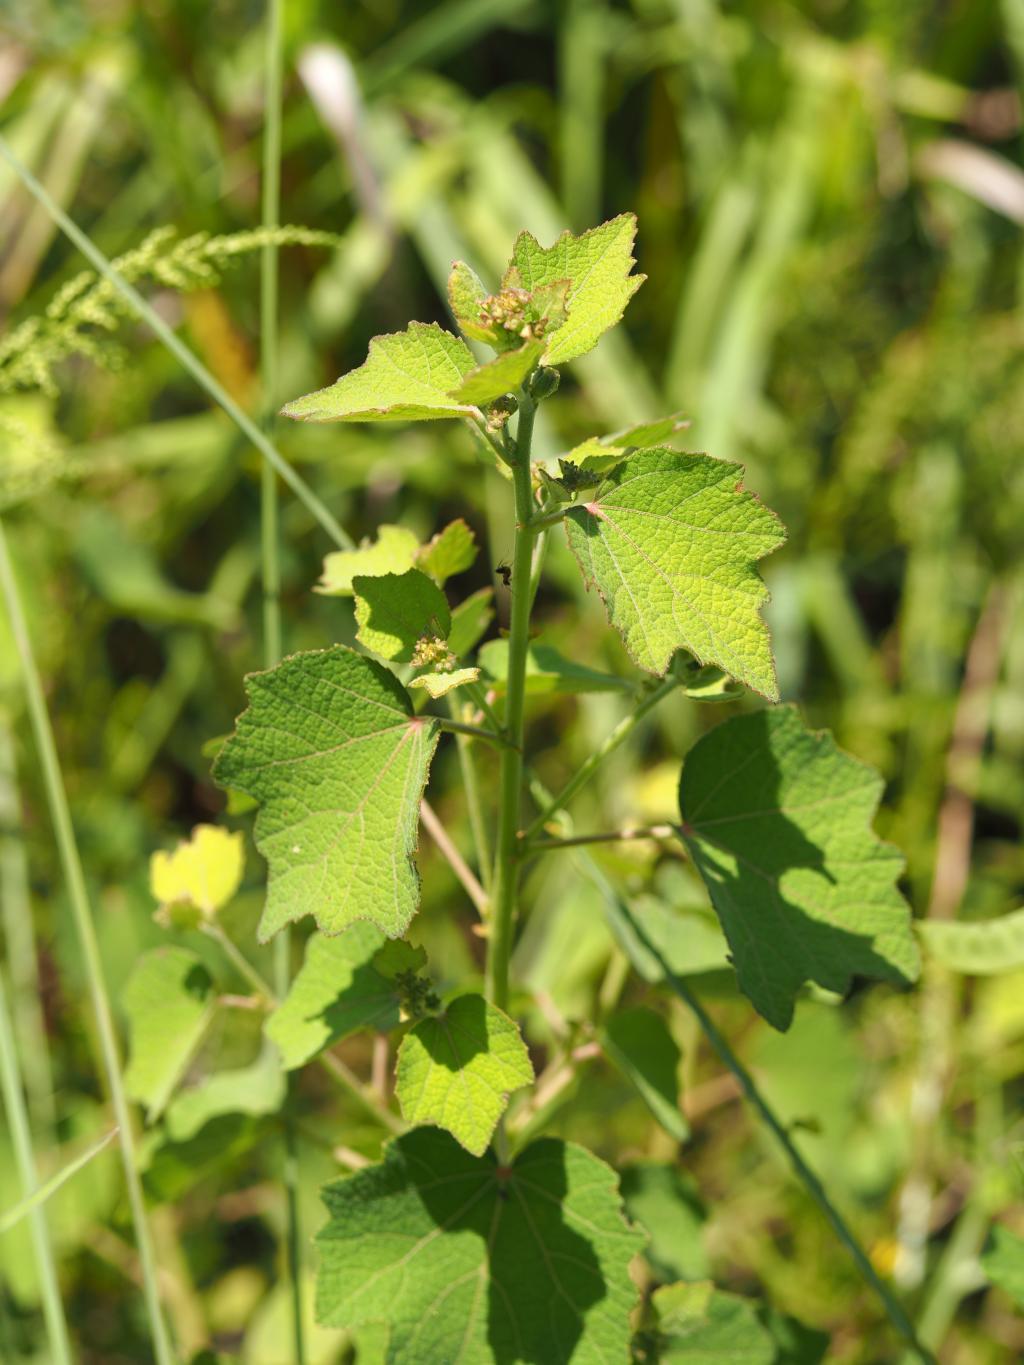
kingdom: Plantae
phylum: Tracheophyta
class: Magnoliopsida
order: Malvales
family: Malvaceae
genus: Urena
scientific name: Urena lobata
